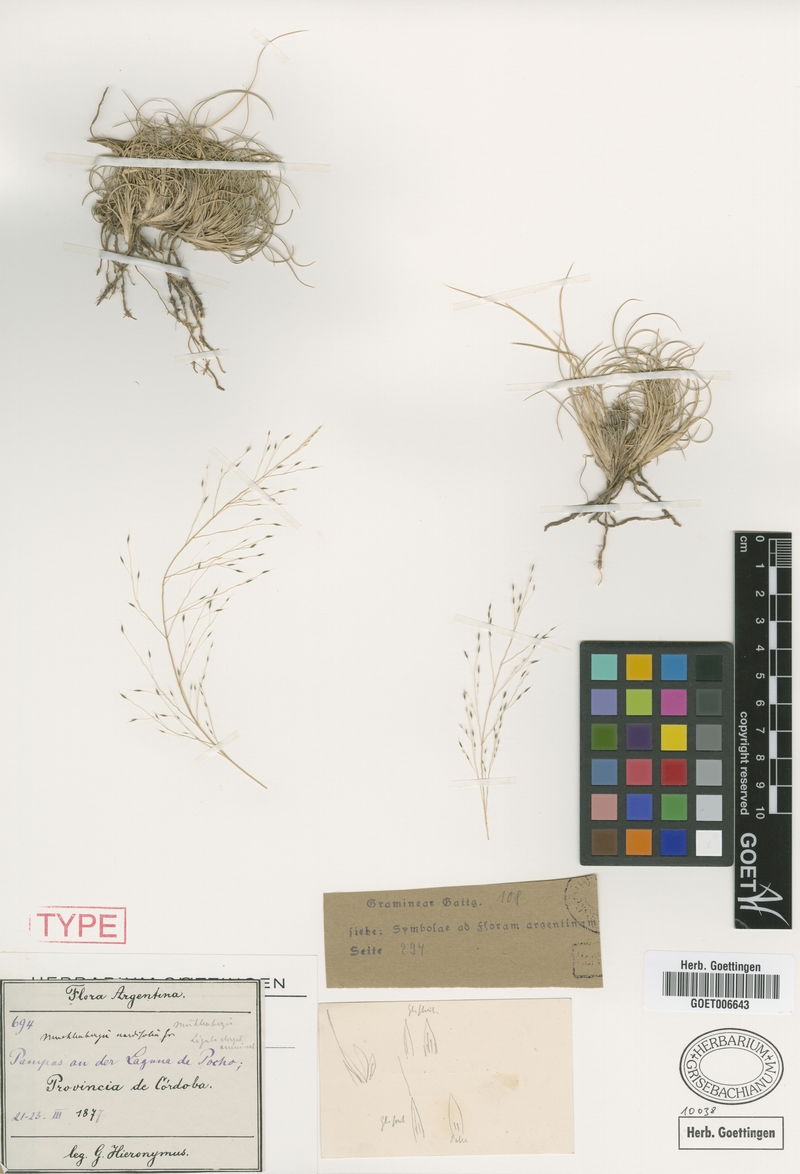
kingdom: Plantae
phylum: Tracheophyta
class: Liliopsida
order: Poales
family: Poaceae
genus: Muhlenbergia
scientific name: Muhlenbergia torreyi
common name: Ring grass
